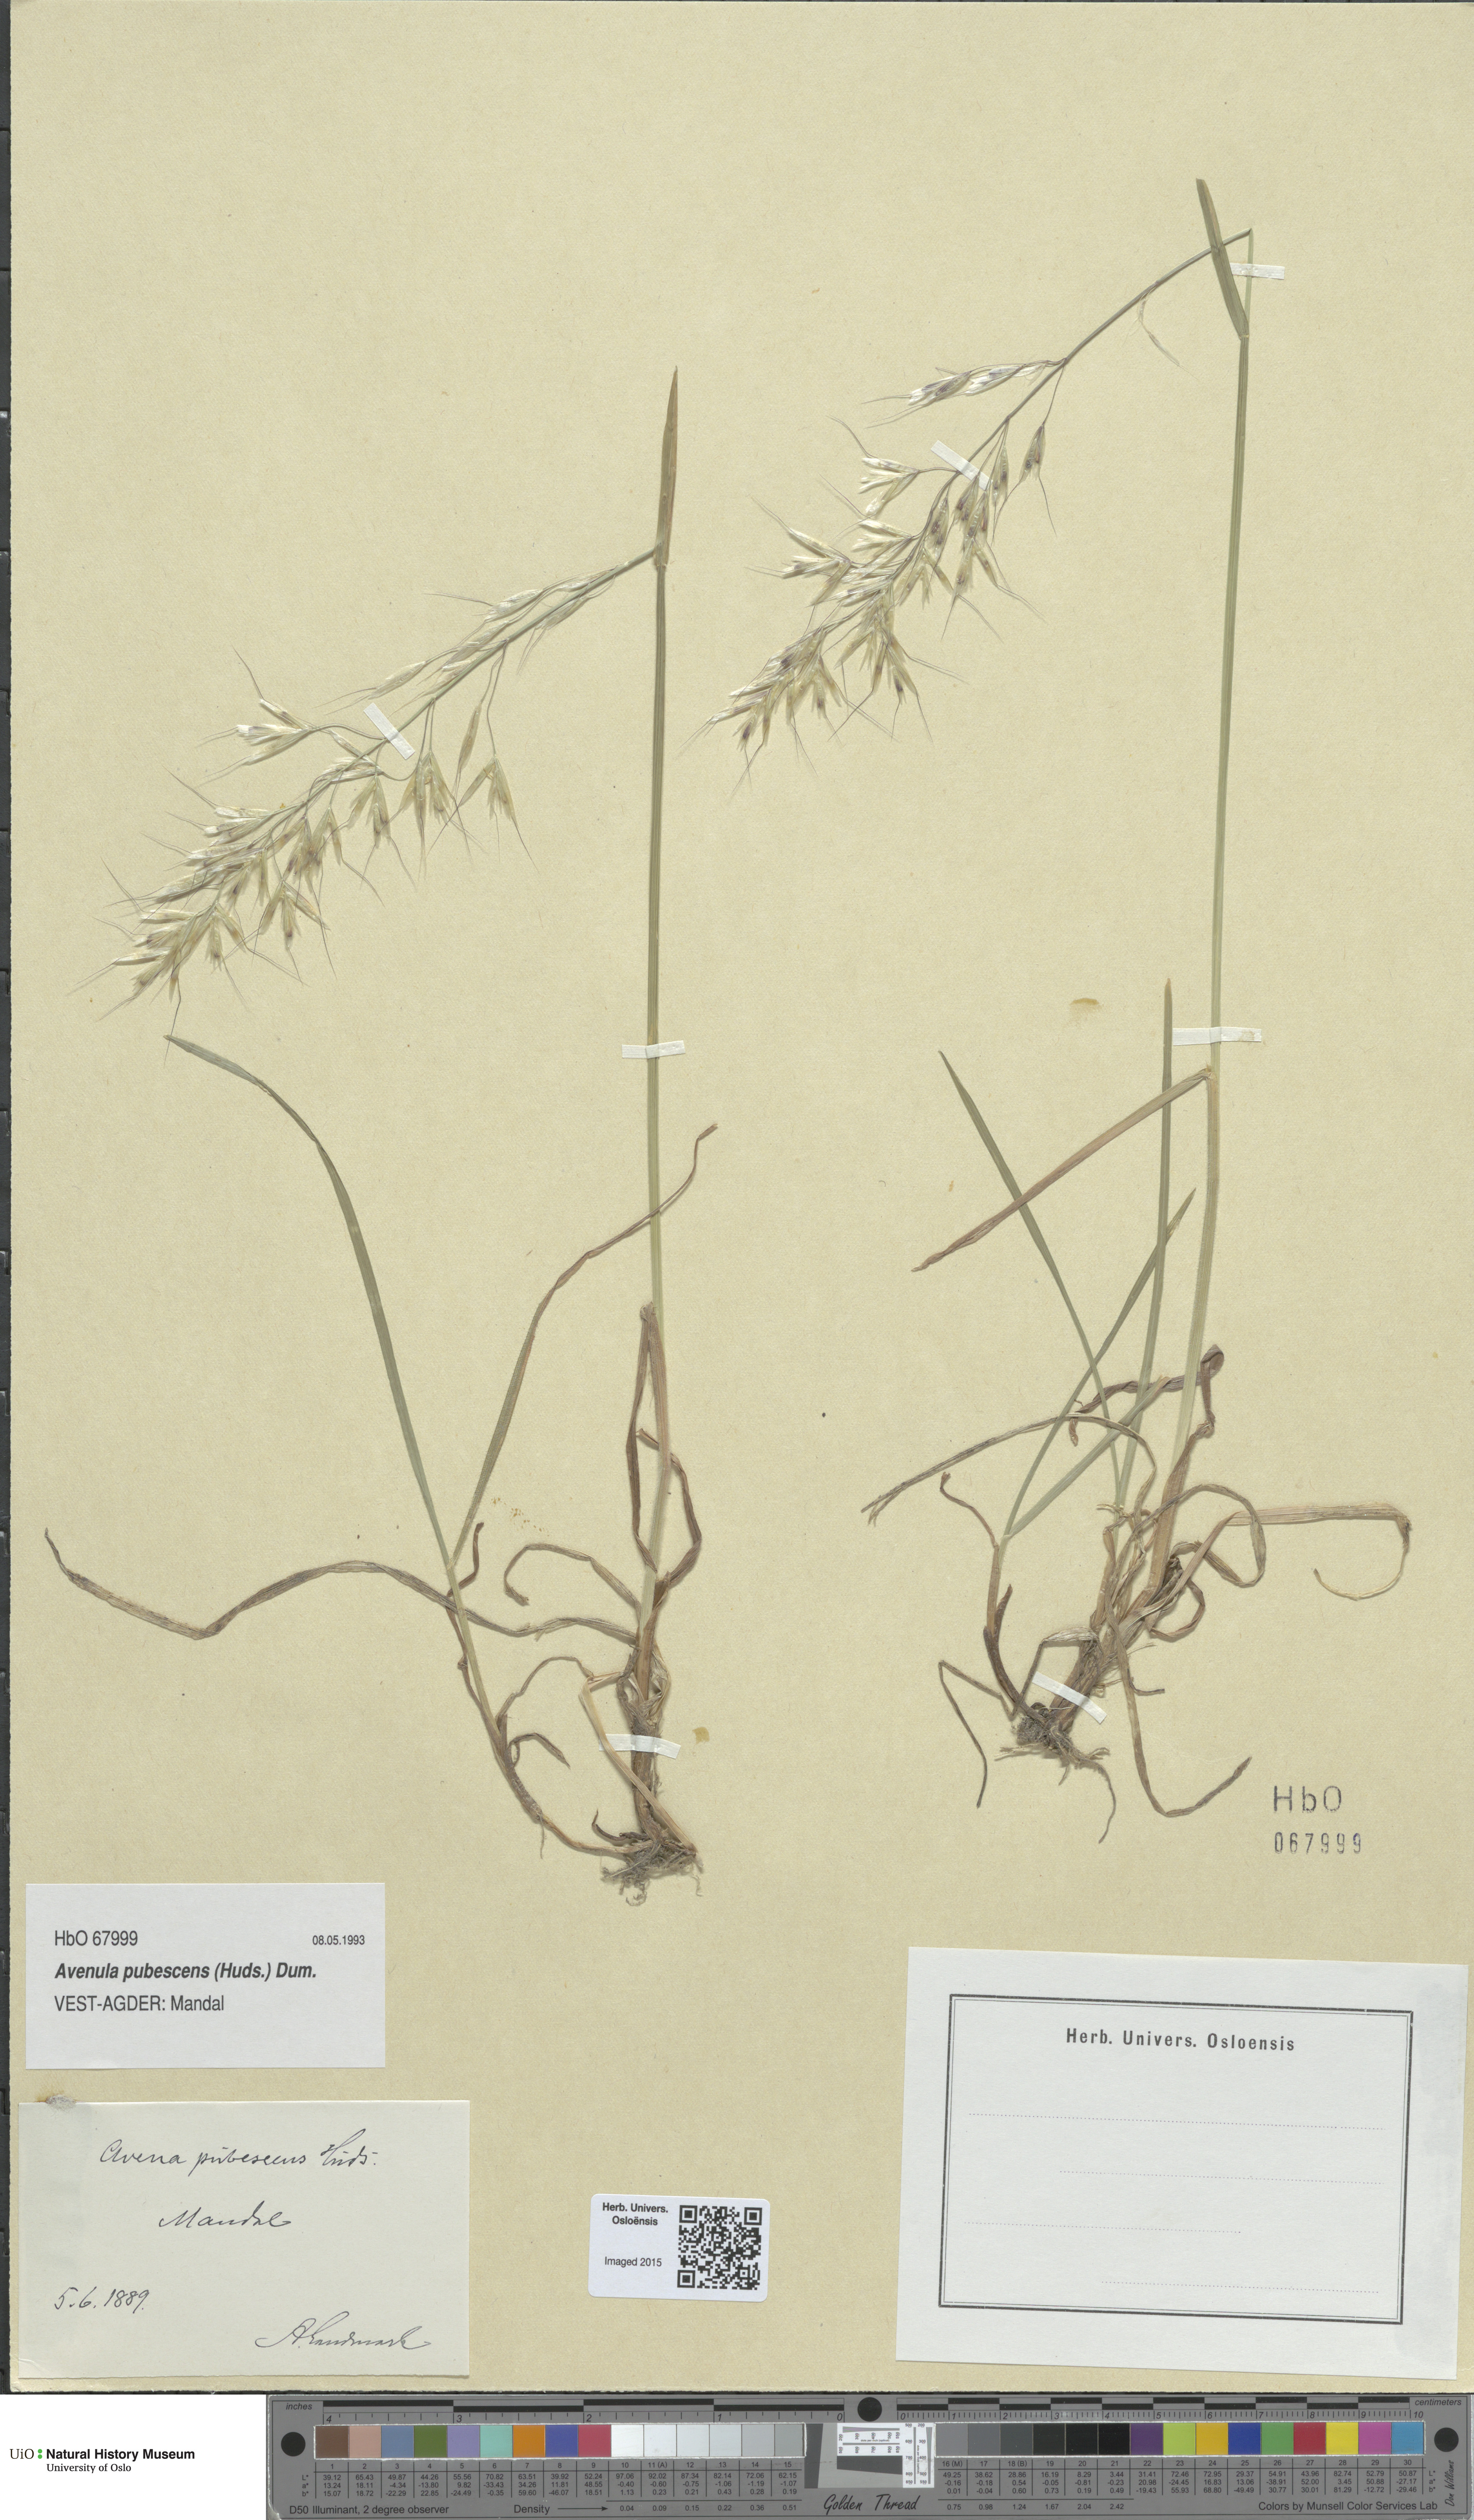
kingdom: Plantae
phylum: Tracheophyta
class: Liliopsida
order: Poales
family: Poaceae
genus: Avenula
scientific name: Avenula pubescens
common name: Downy alpine oatgrass
